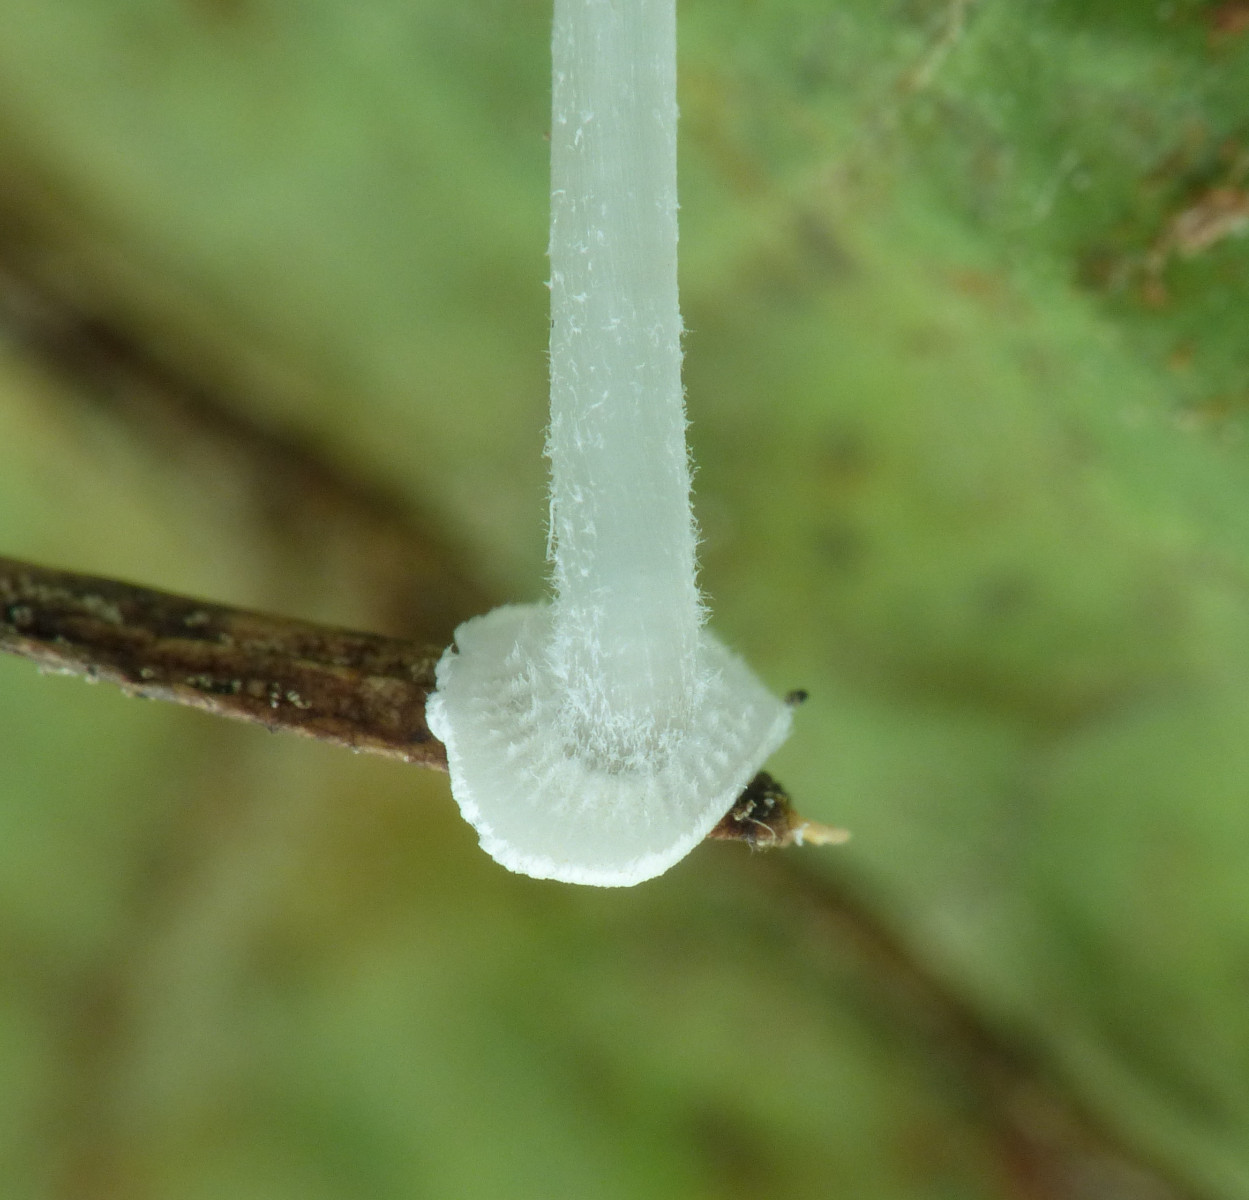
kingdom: Fungi
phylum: Basidiomycota
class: Agaricomycetes
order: Agaricales
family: Mycenaceae
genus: Mycena
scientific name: Mycena stylobates
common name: fureskivet huesvamp
